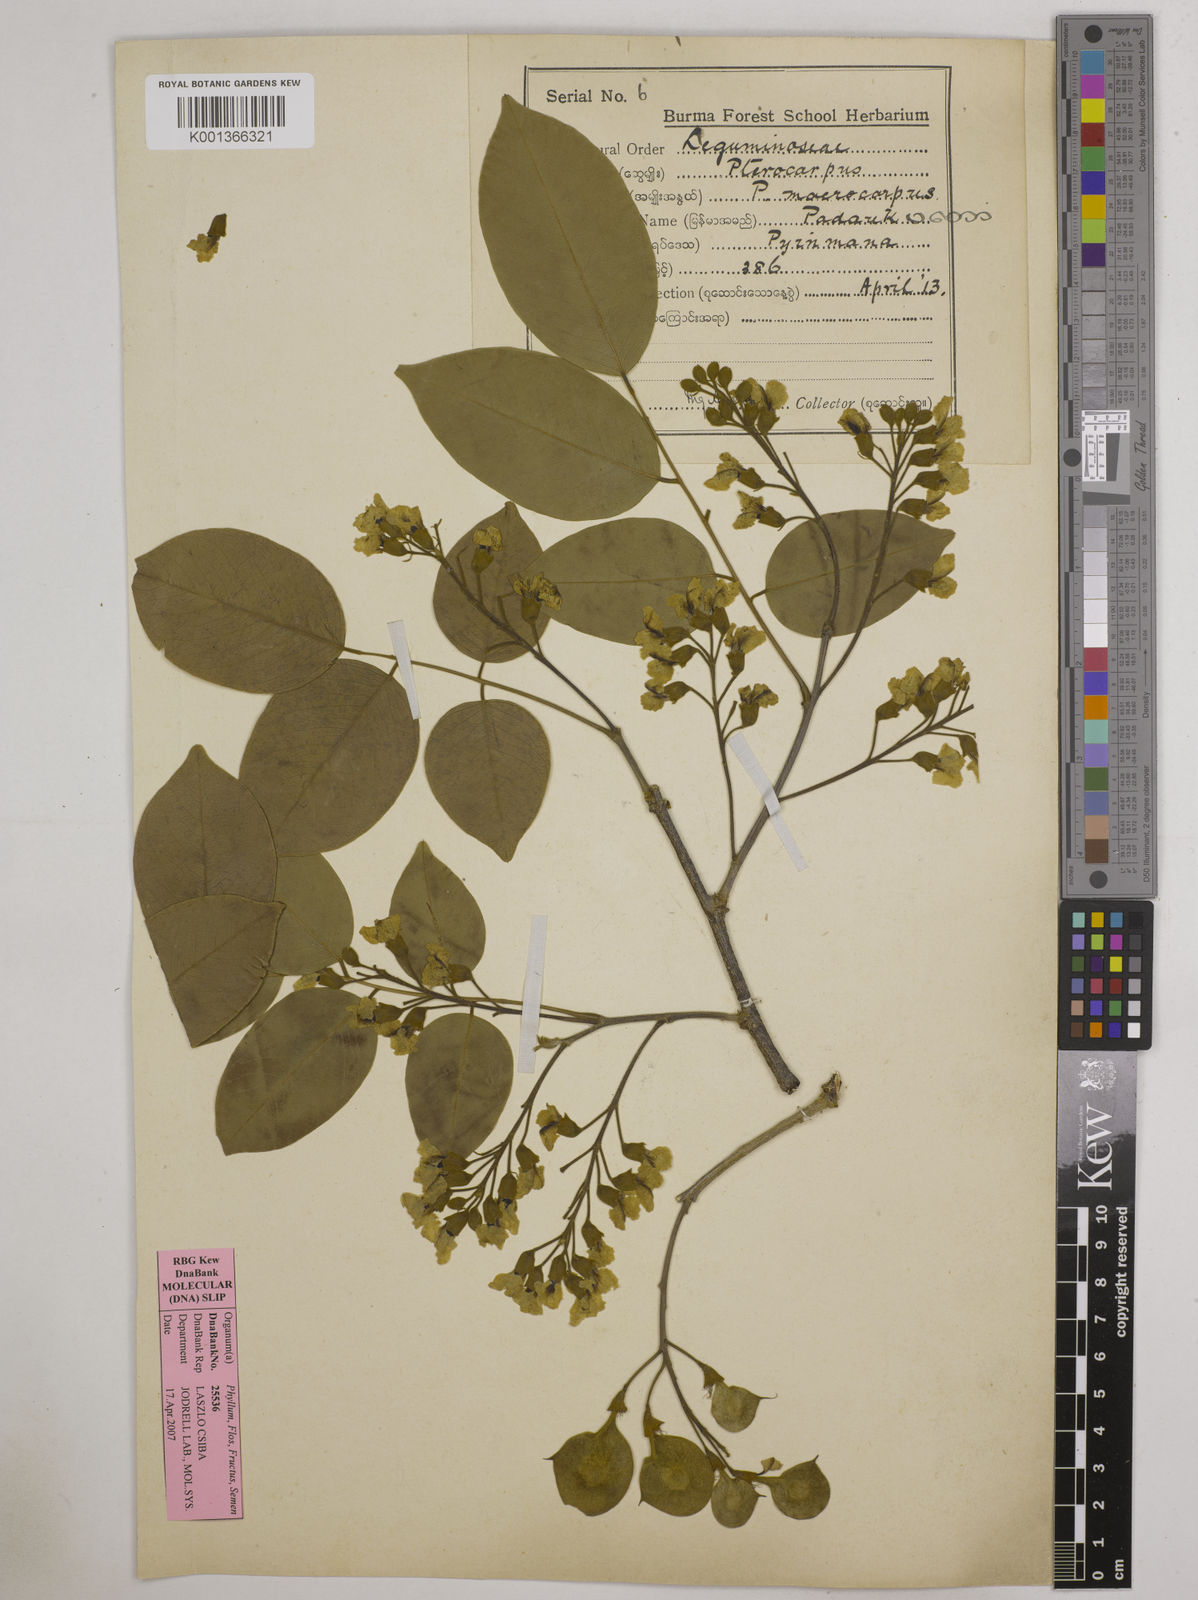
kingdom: Plantae
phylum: Tracheophyta
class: Magnoliopsida
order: Fabales
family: Fabaceae
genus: Pterocarpus
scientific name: Pterocarpus macrocarpus
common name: Burma padauk
